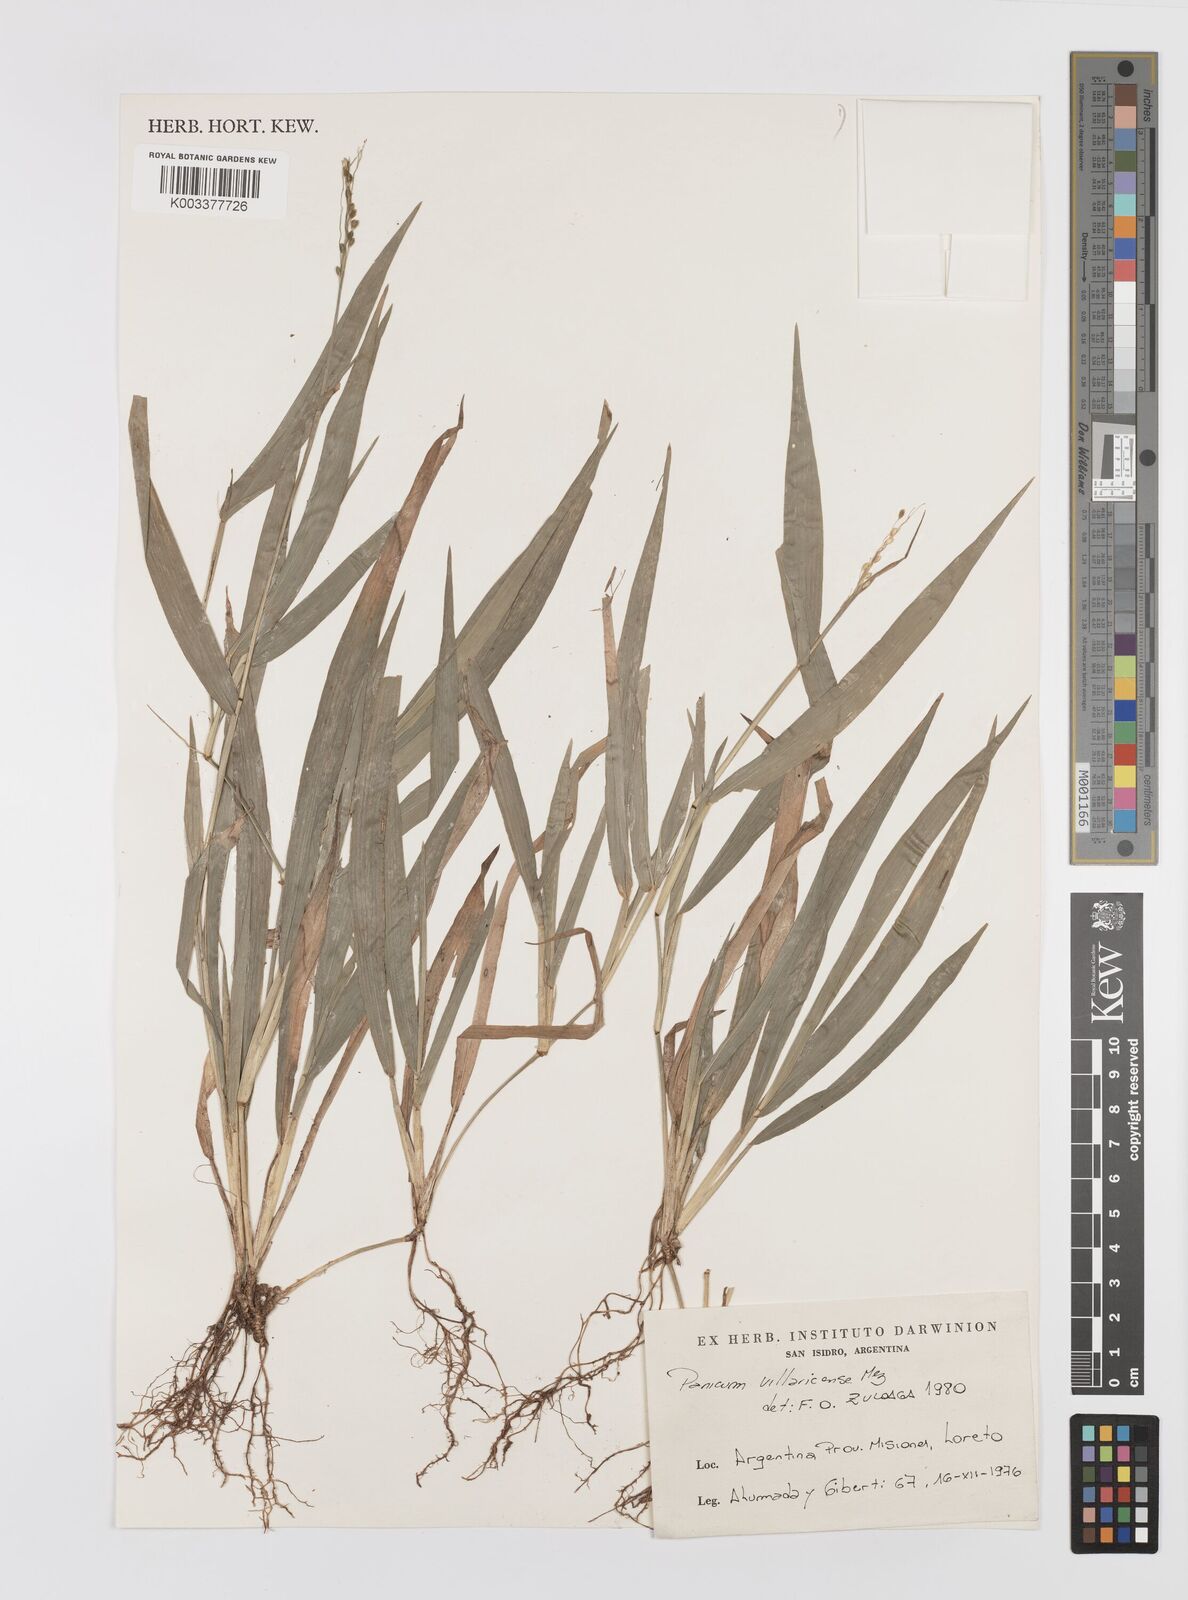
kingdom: Plantae
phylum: Tracheophyta
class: Liliopsida
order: Poales
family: Poaceae
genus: Homolepis
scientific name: Homolepis villaricensis
